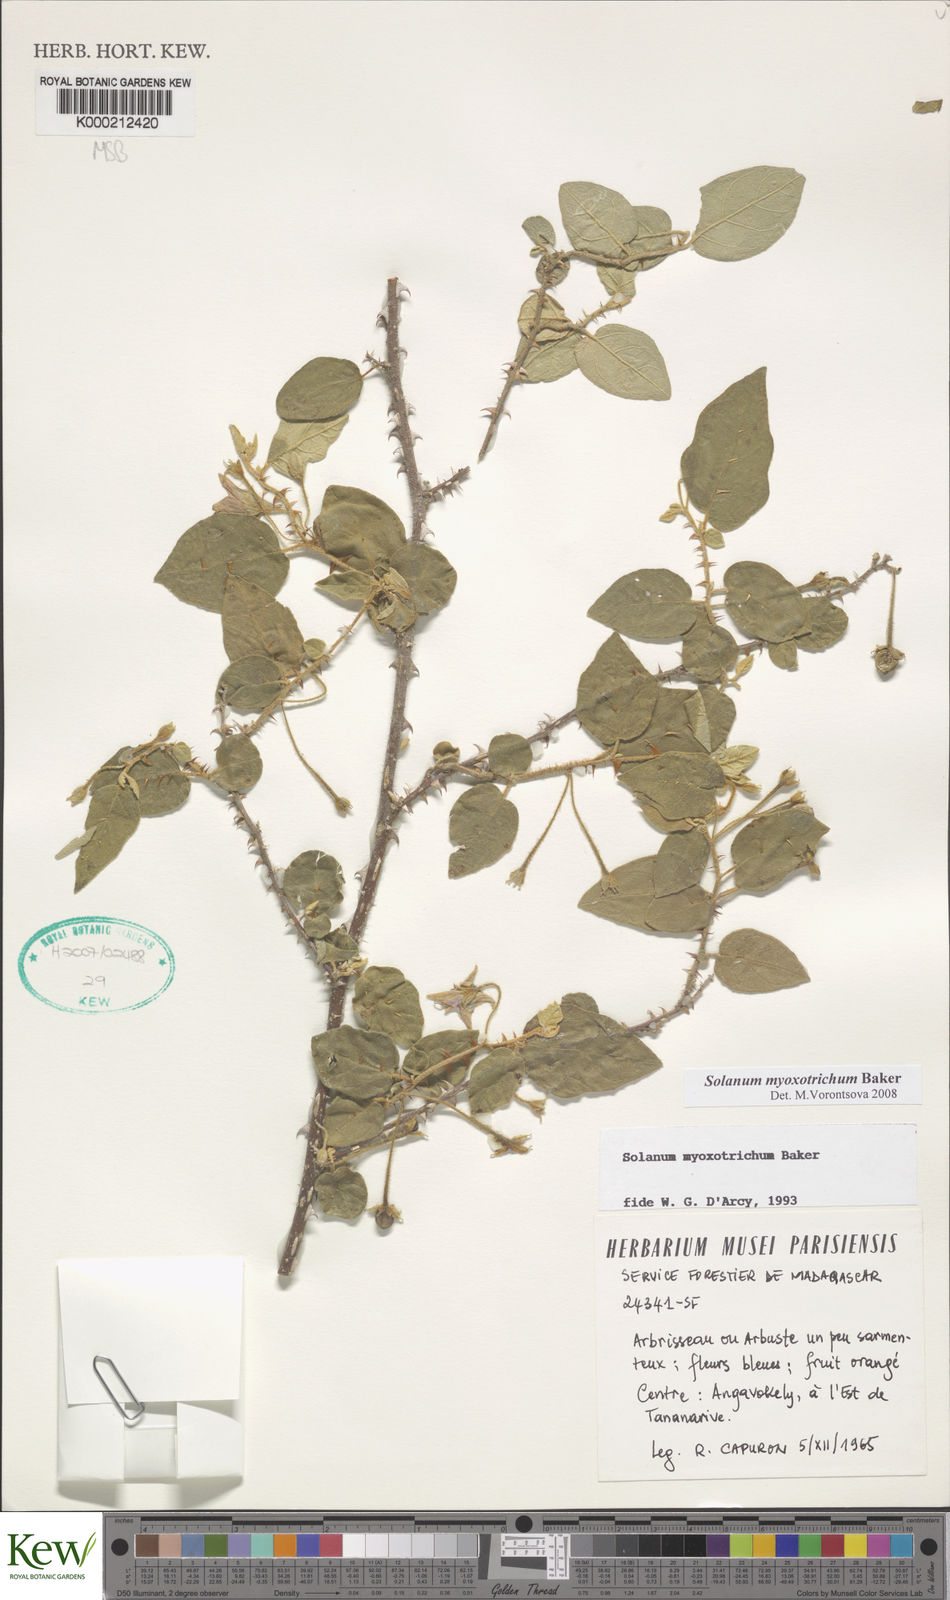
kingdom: Plantae
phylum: Tracheophyta
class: Magnoliopsida
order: Solanales
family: Solanaceae
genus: Solanum
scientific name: Solanum myoxotrichum
